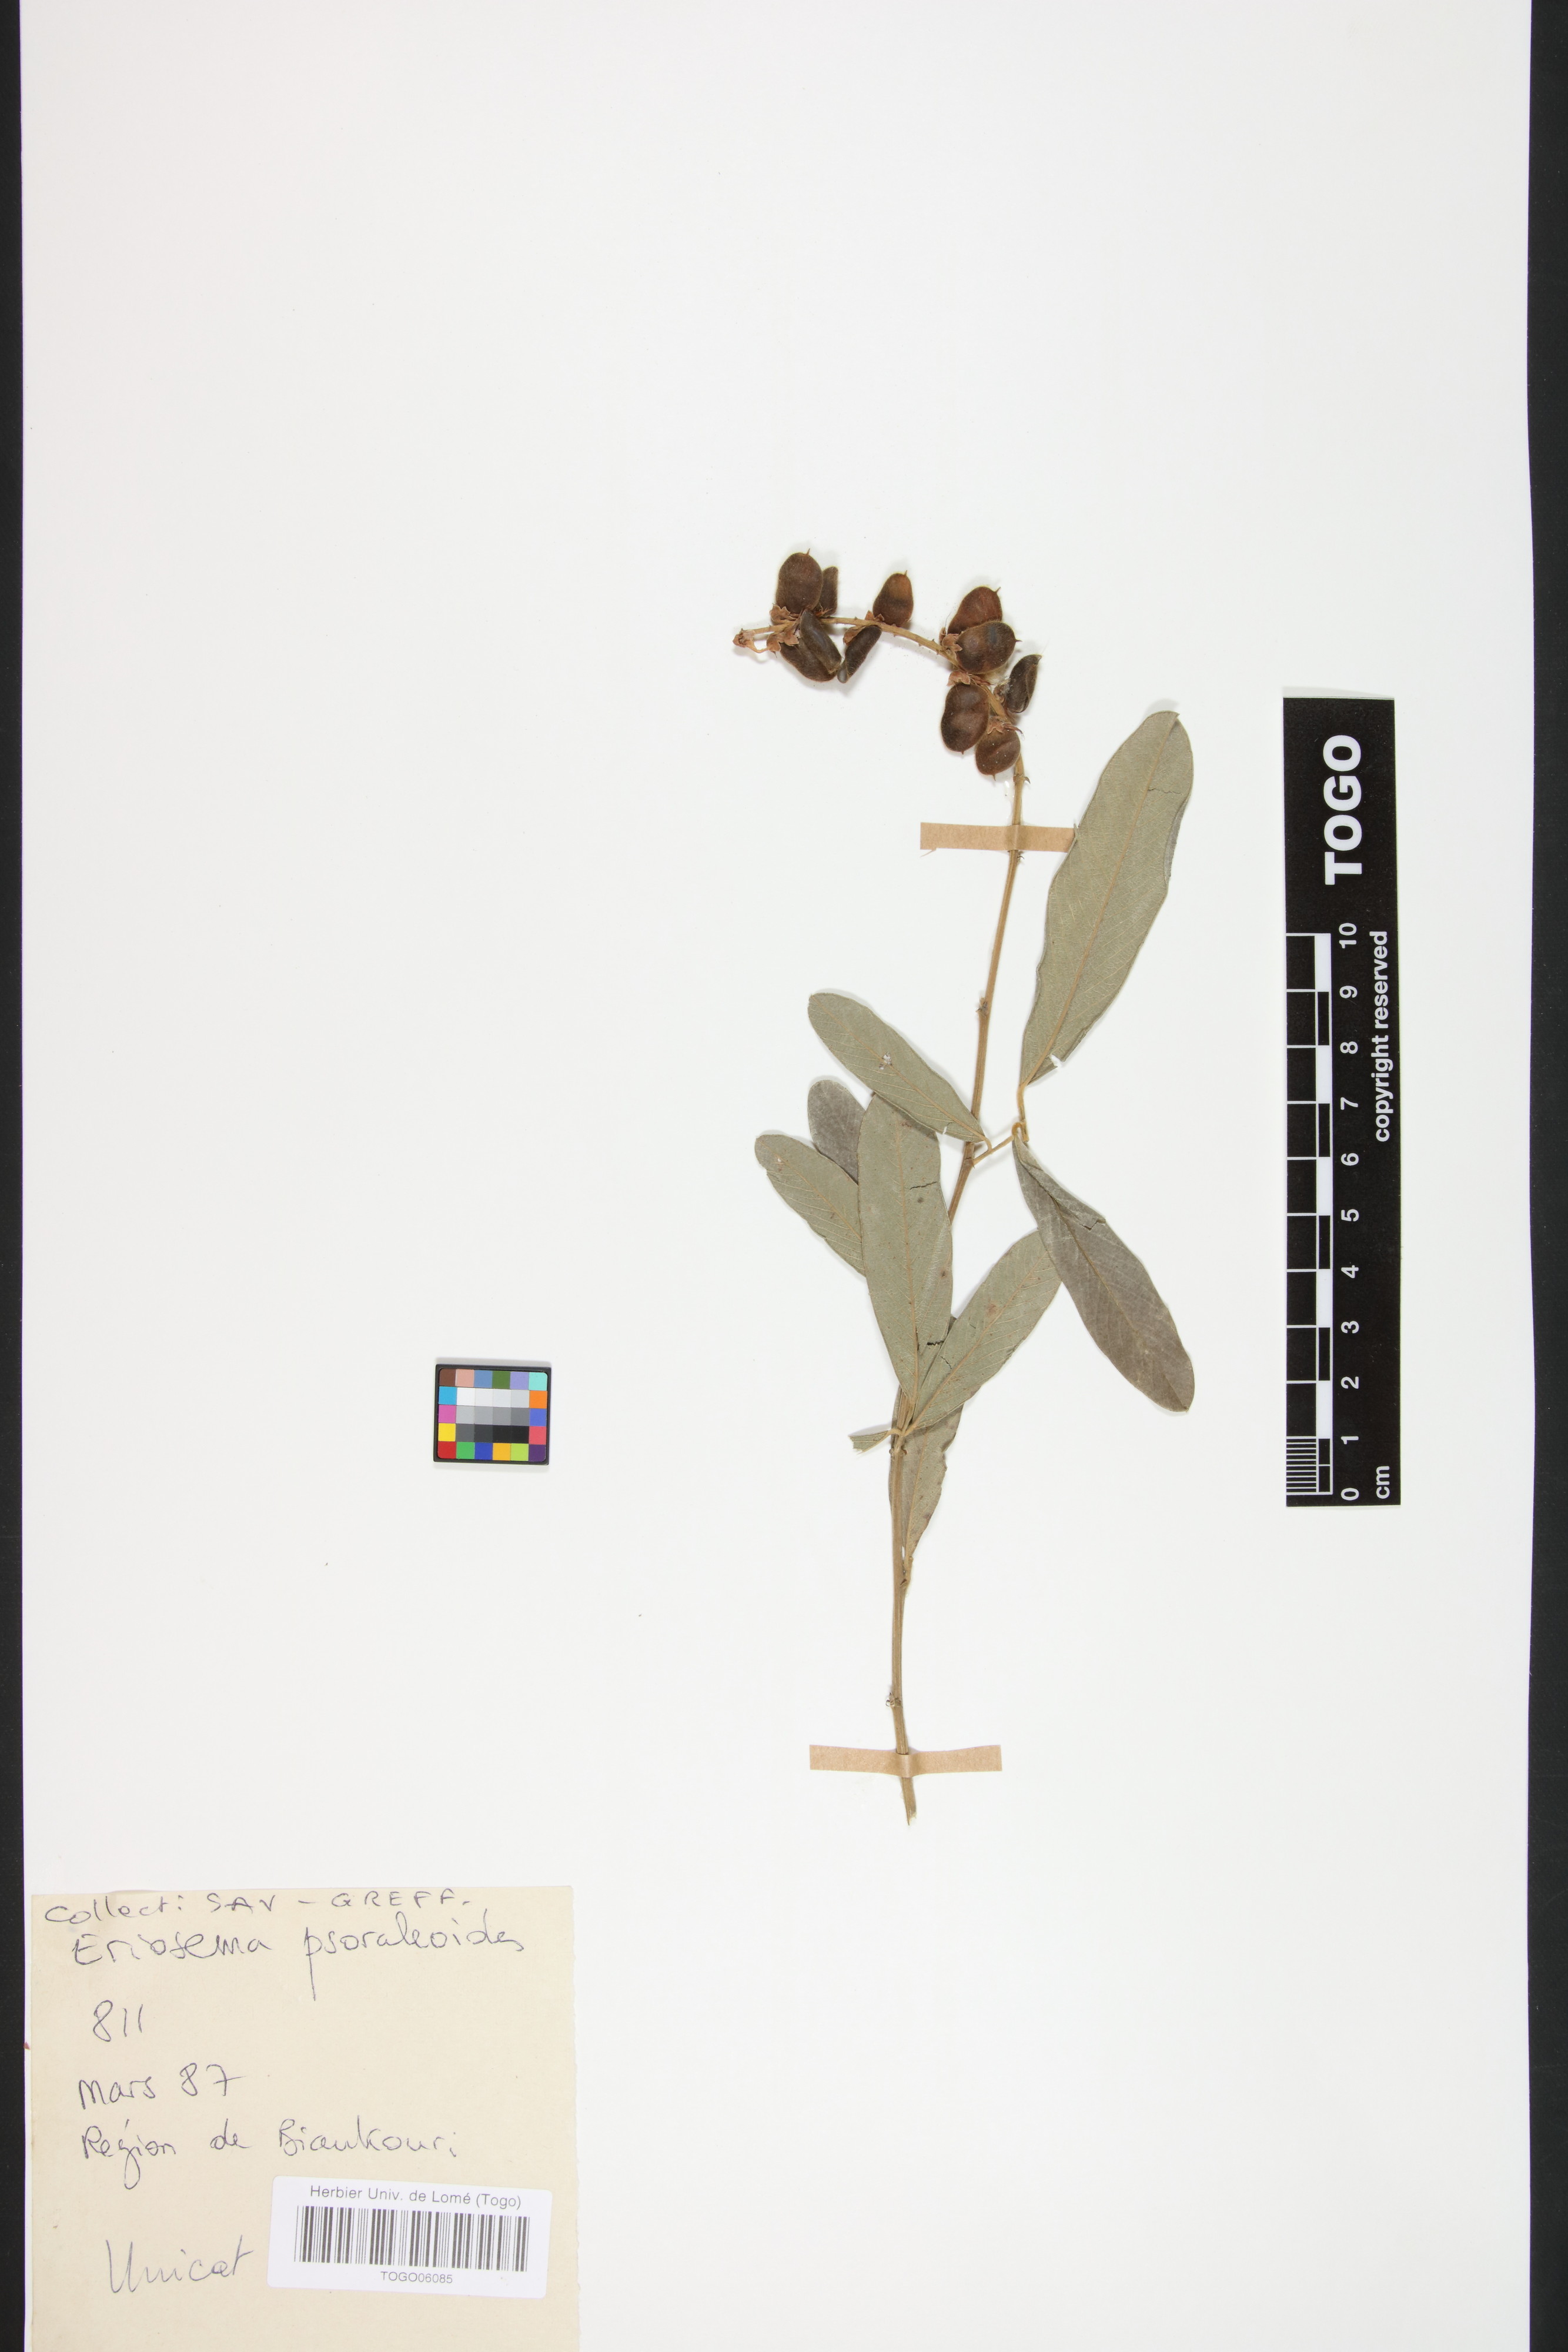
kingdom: Plantae
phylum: Tracheophyta
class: Magnoliopsida
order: Fabales
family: Fabaceae
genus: Eriosema
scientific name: Eriosema psoraleoides
